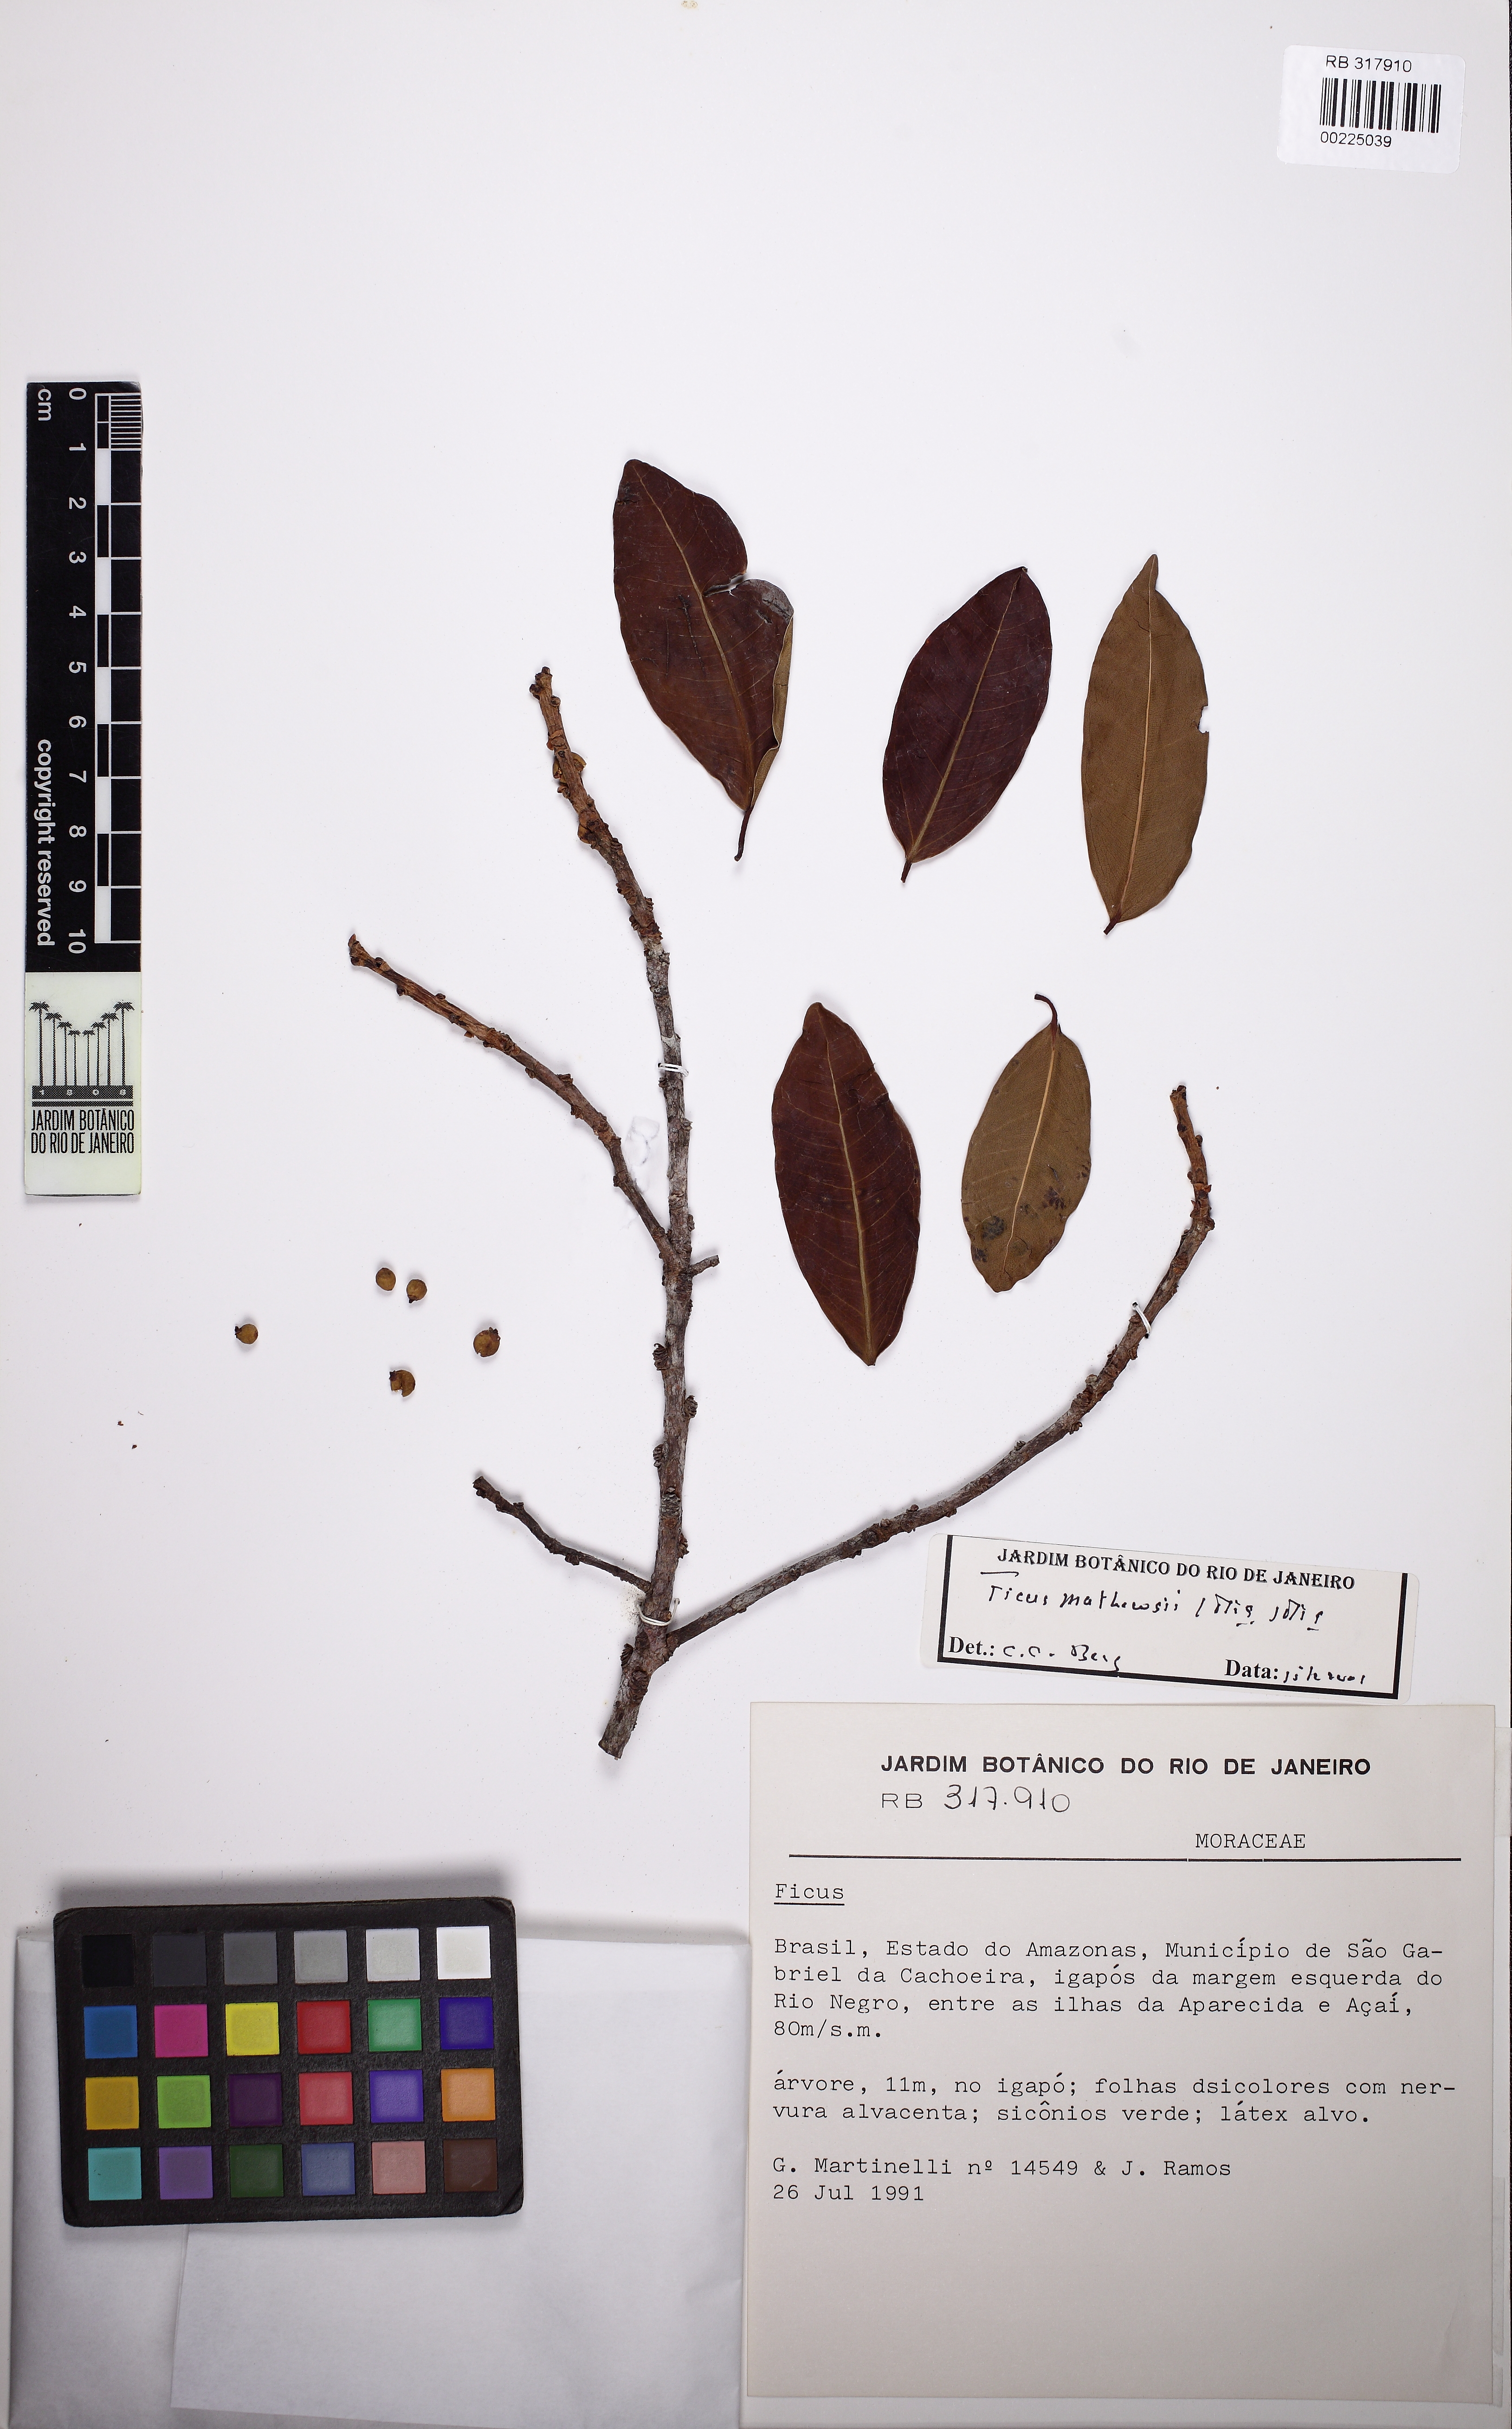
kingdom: Plantae
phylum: Tracheophyta
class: Magnoliopsida
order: Rosales
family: Moraceae
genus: Ficus
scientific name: Ficus mathewsii
